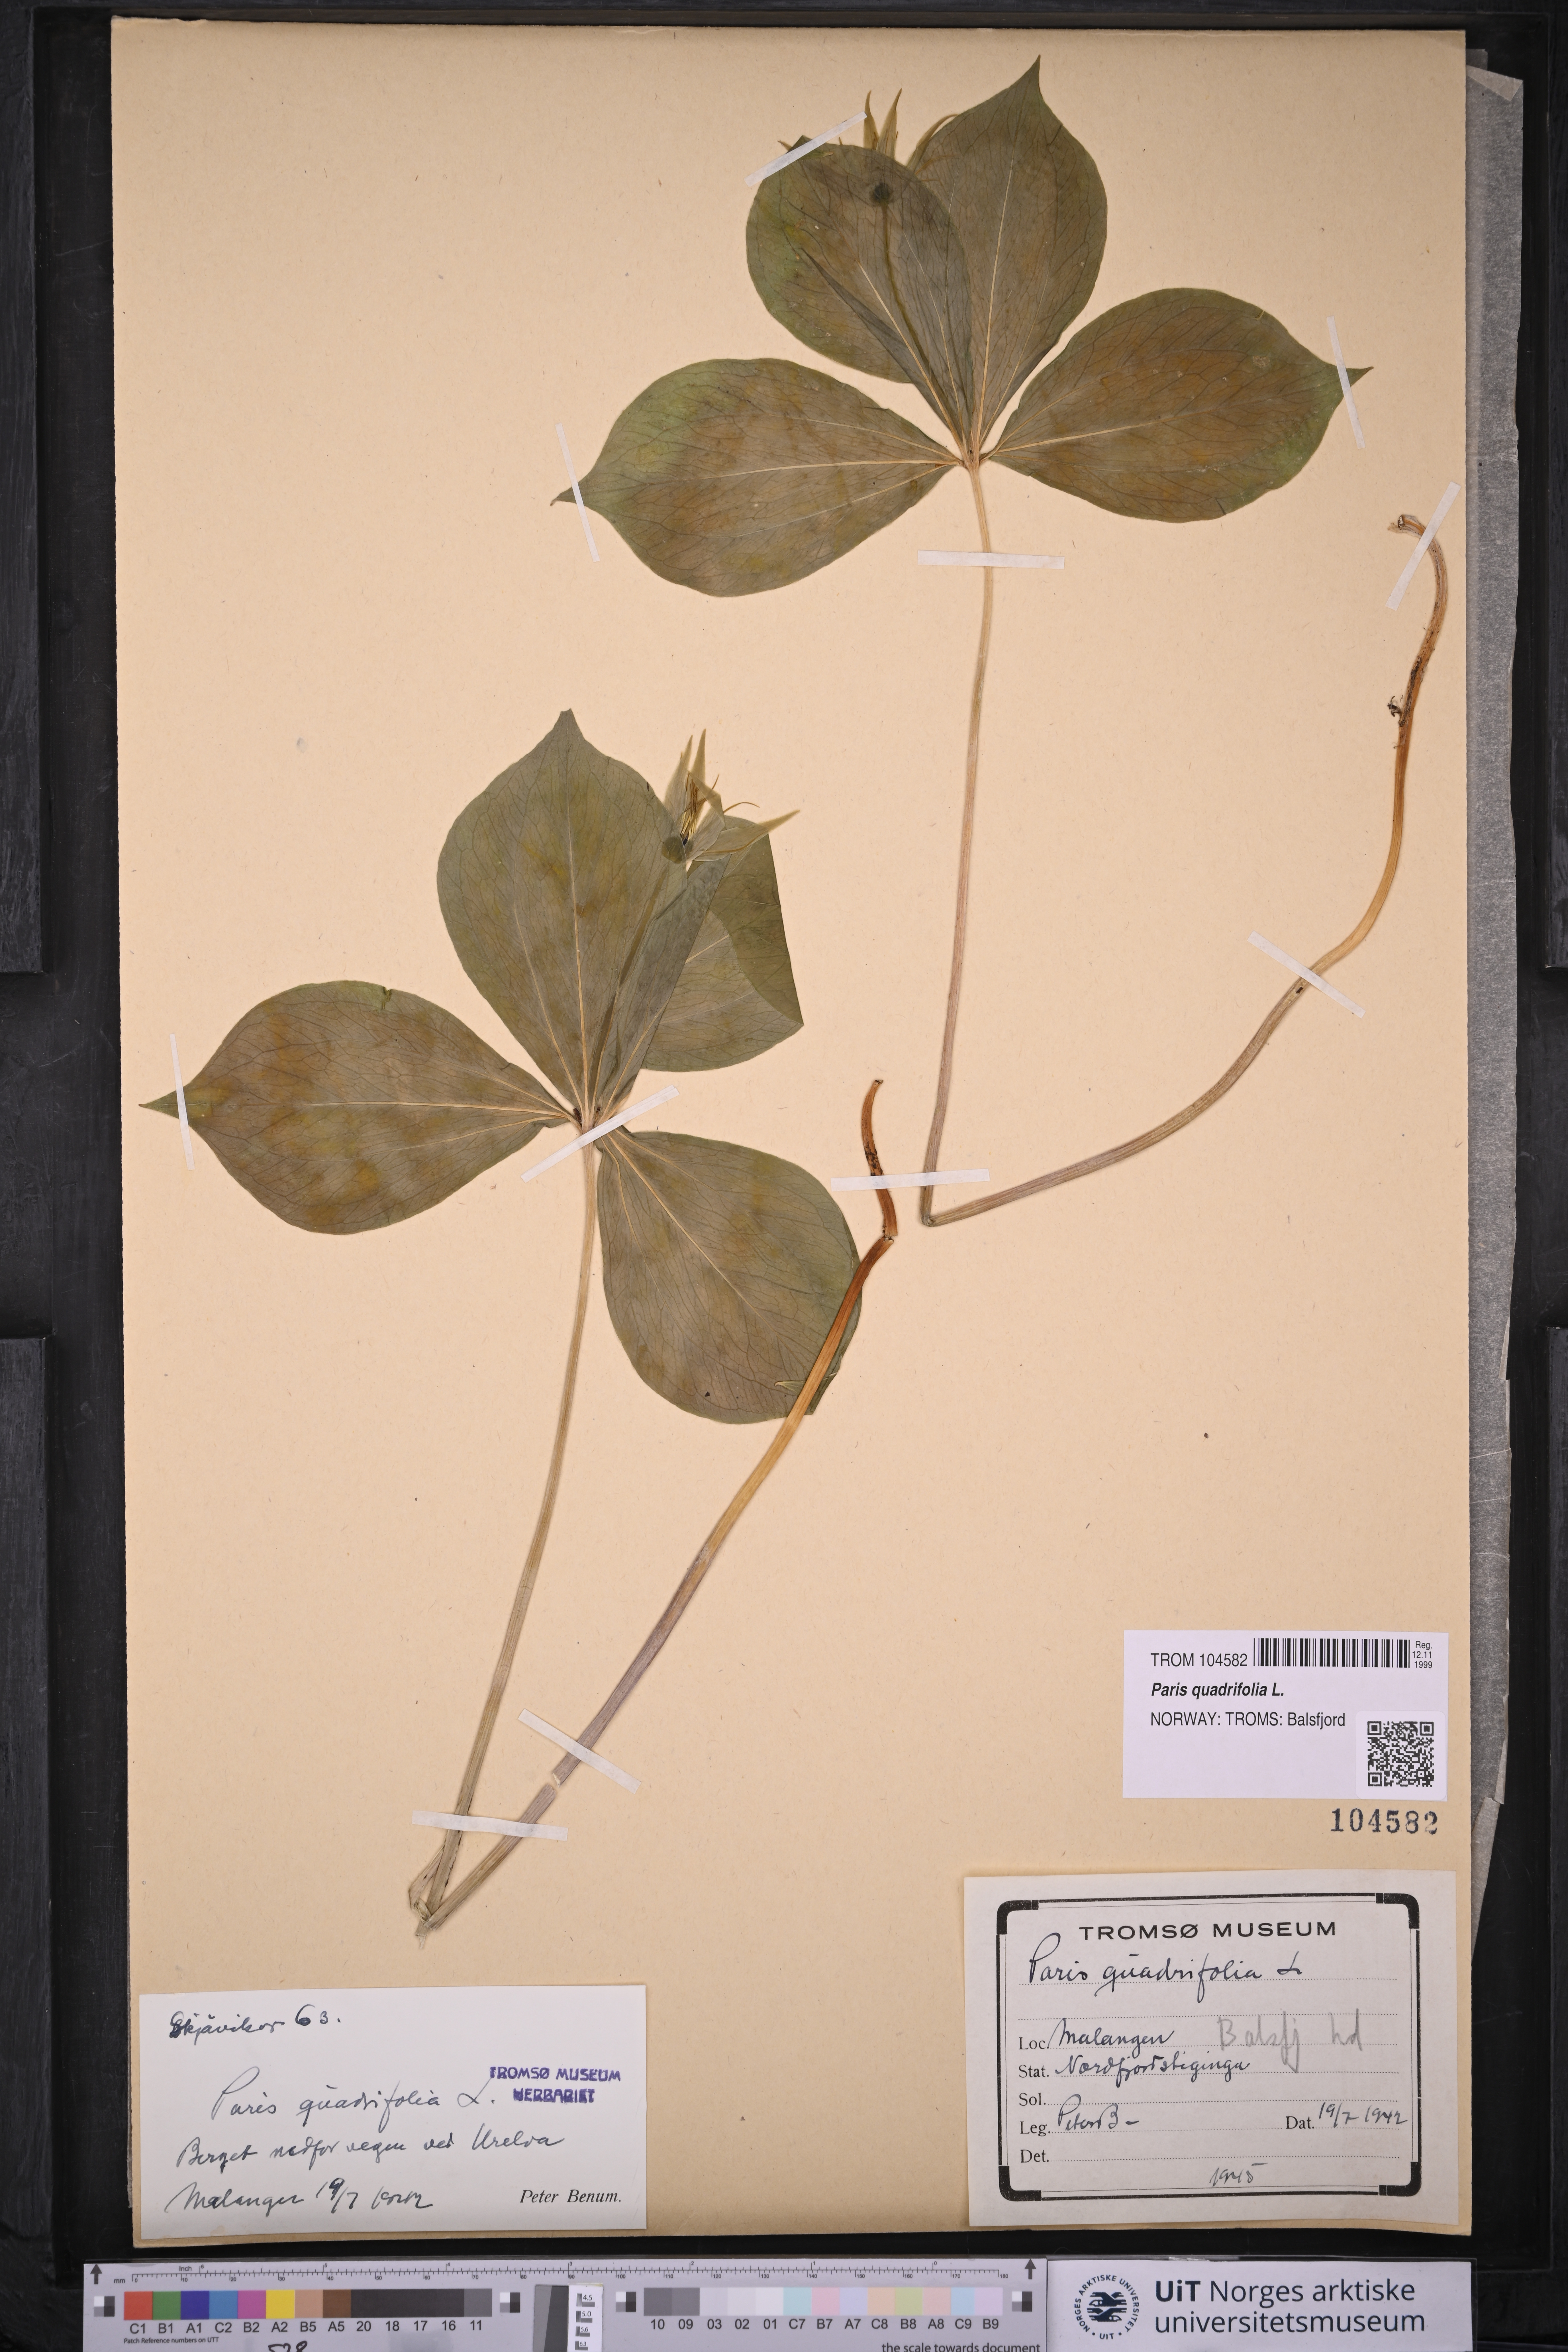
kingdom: Plantae
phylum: Tracheophyta
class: Liliopsida
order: Liliales
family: Melanthiaceae
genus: Paris
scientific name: Paris quadrifolia
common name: Herb-paris
